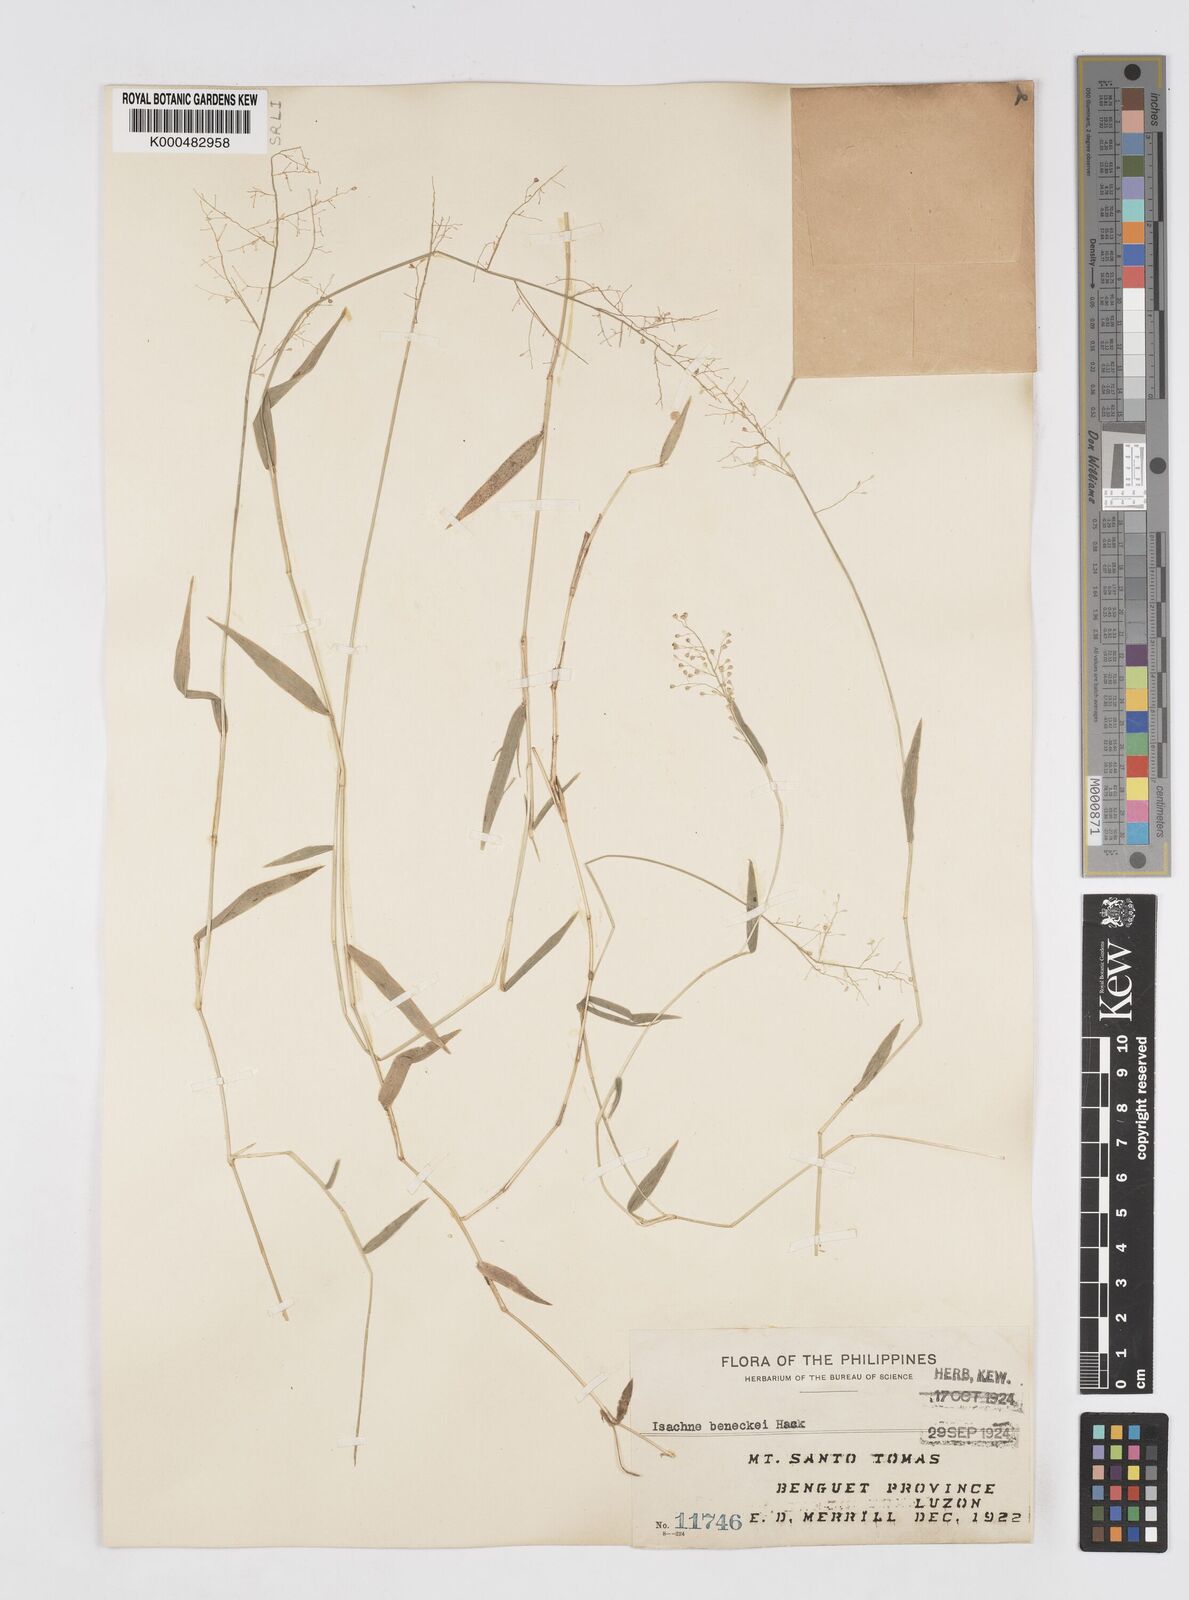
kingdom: Plantae
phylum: Tracheophyta
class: Liliopsida
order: Poales
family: Poaceae
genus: Isachne
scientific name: Isachne clarkei
